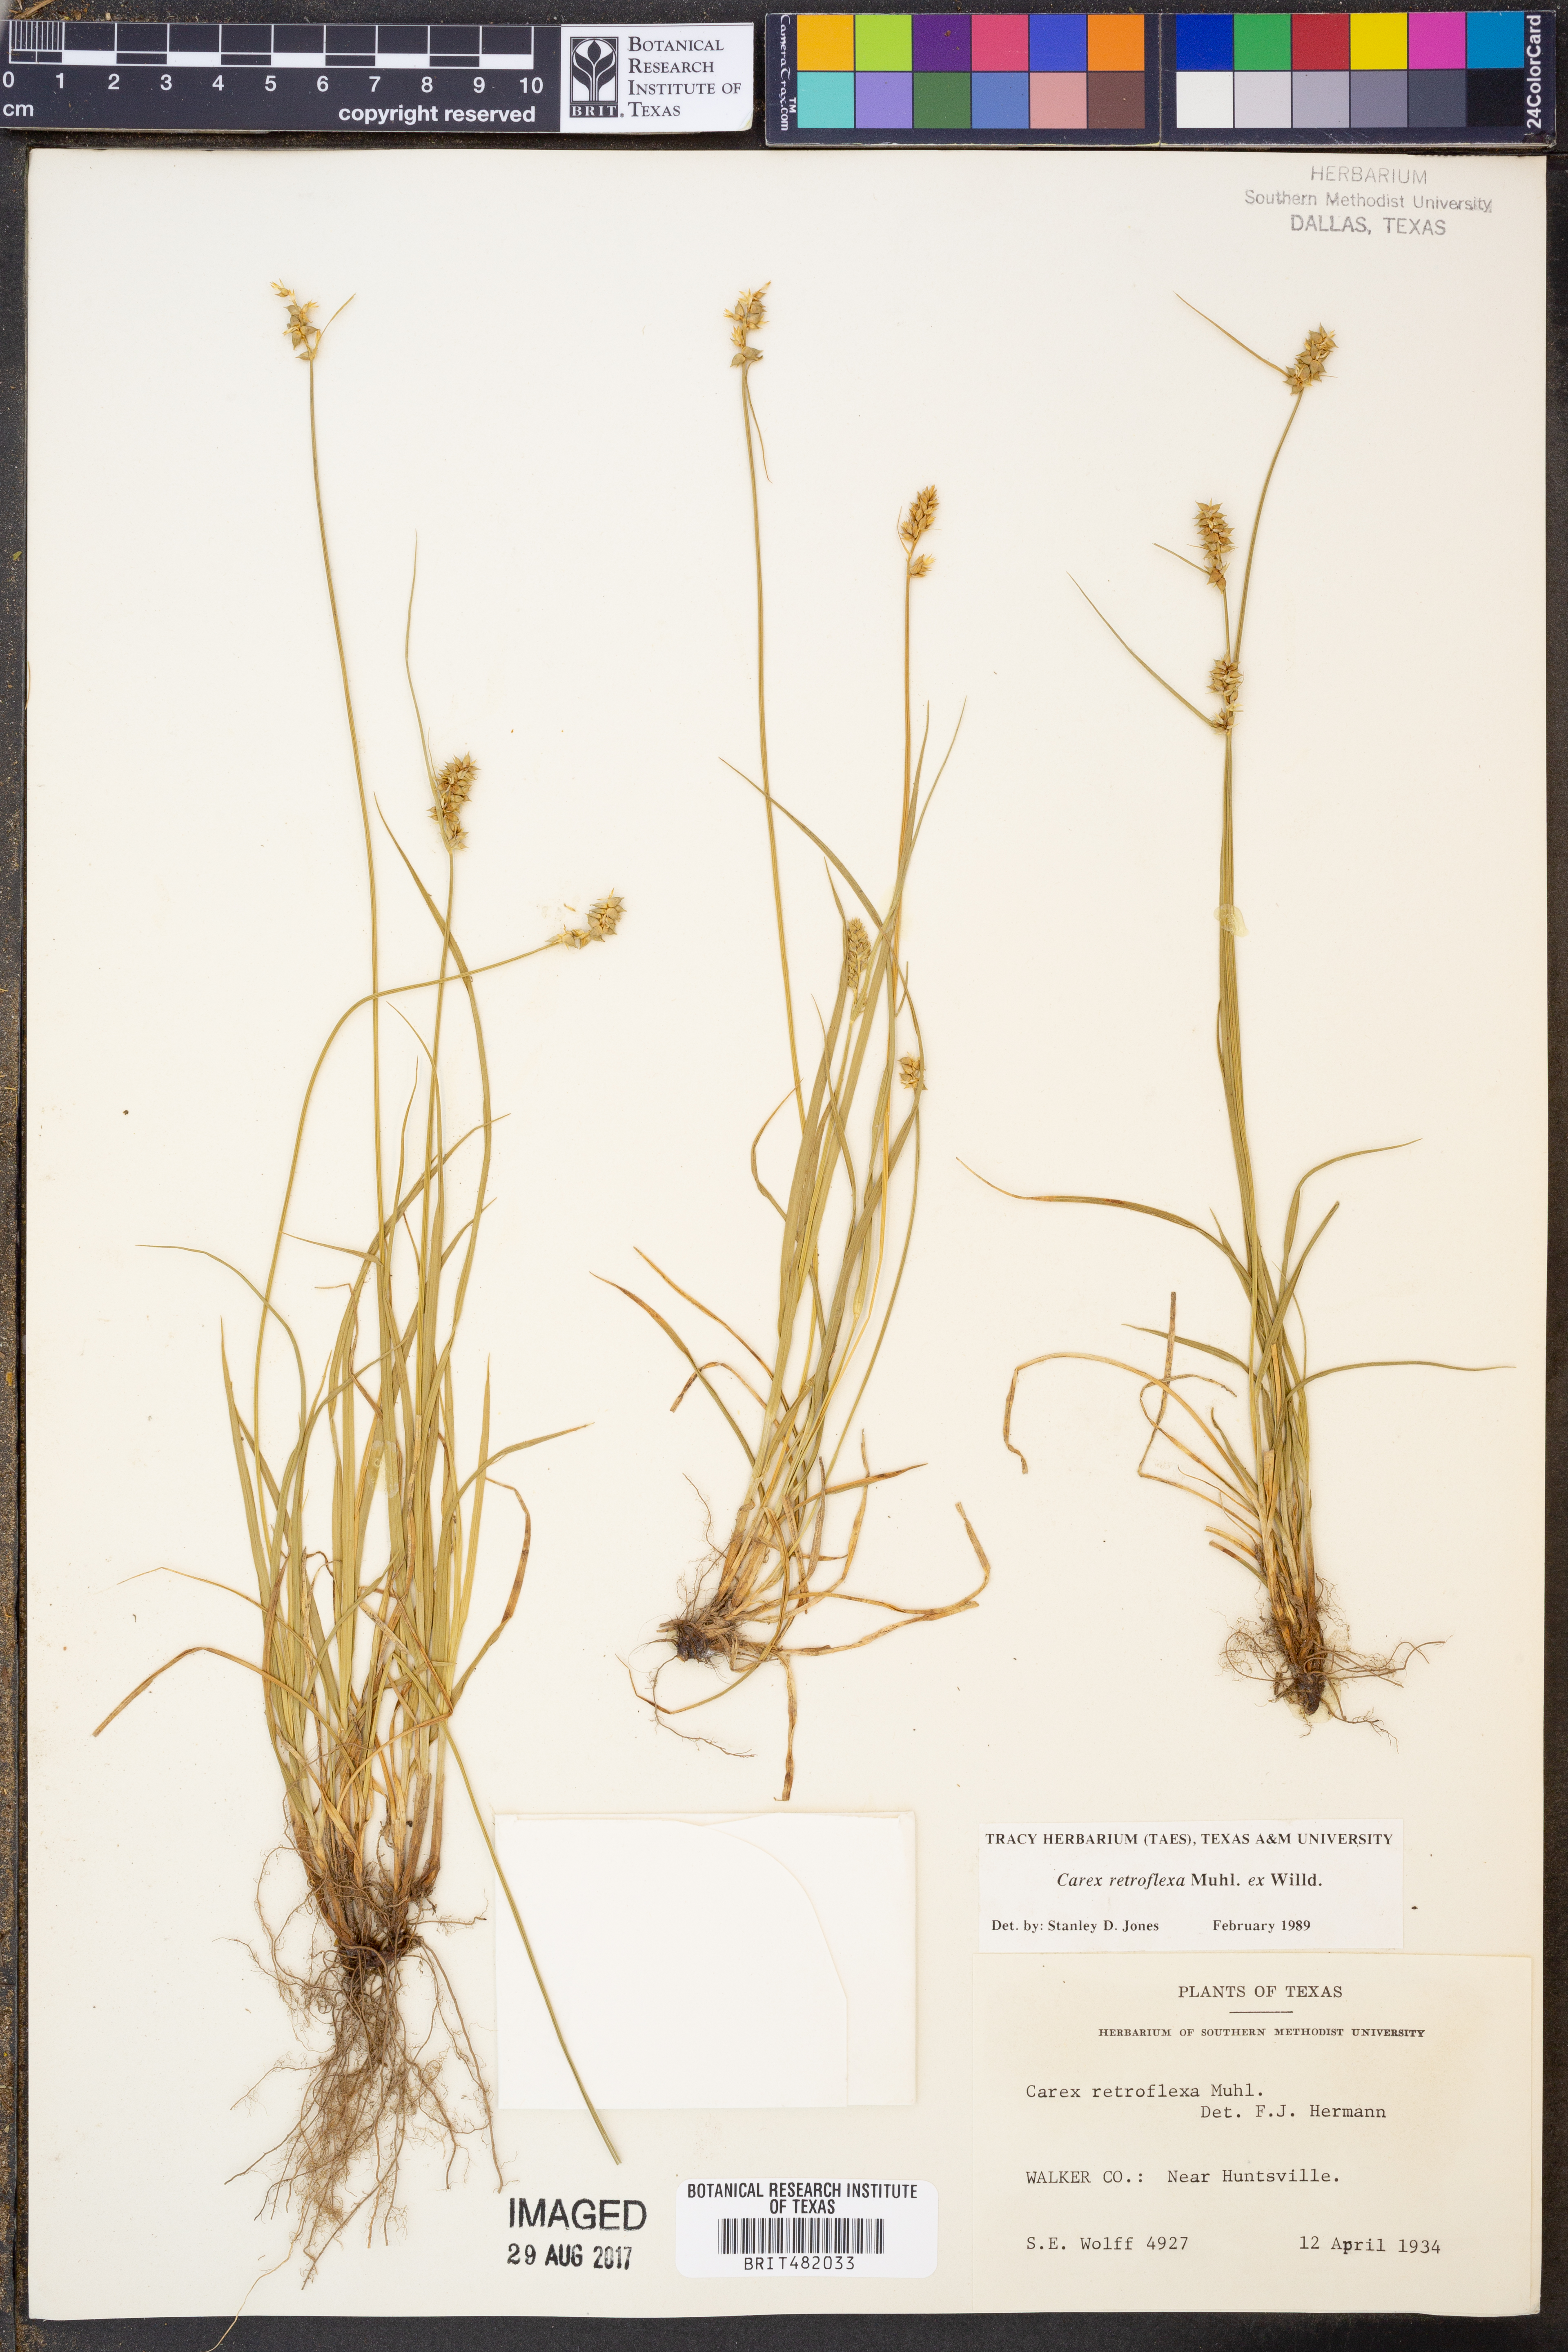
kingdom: Plantae
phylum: Tracheophyta
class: Liliopsida
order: Poales
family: Cyperaceae
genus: Carex
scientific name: Carex retroflexa
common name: Reflexed sedge
